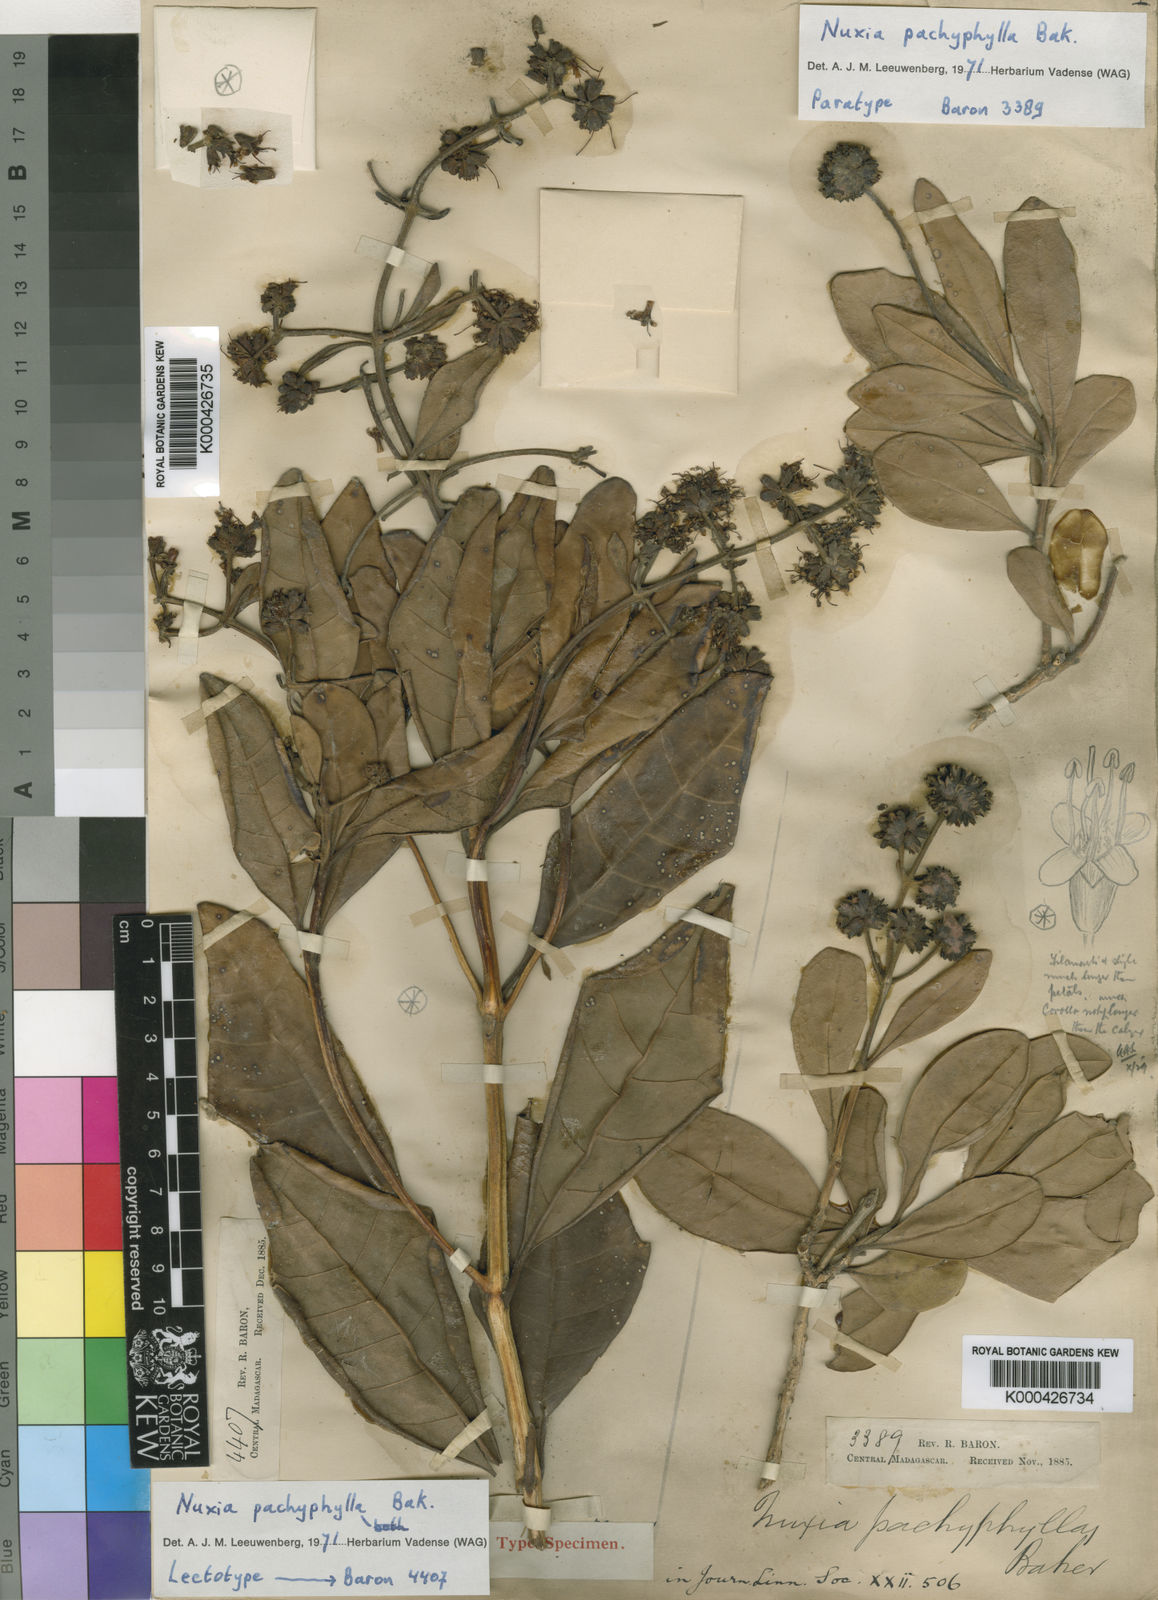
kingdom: Plantae
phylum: Tracheophyta
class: Magnoliopsida
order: Lamiales
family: Stilbaceae
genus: Nuxia
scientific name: Nuxia pachyphylla
